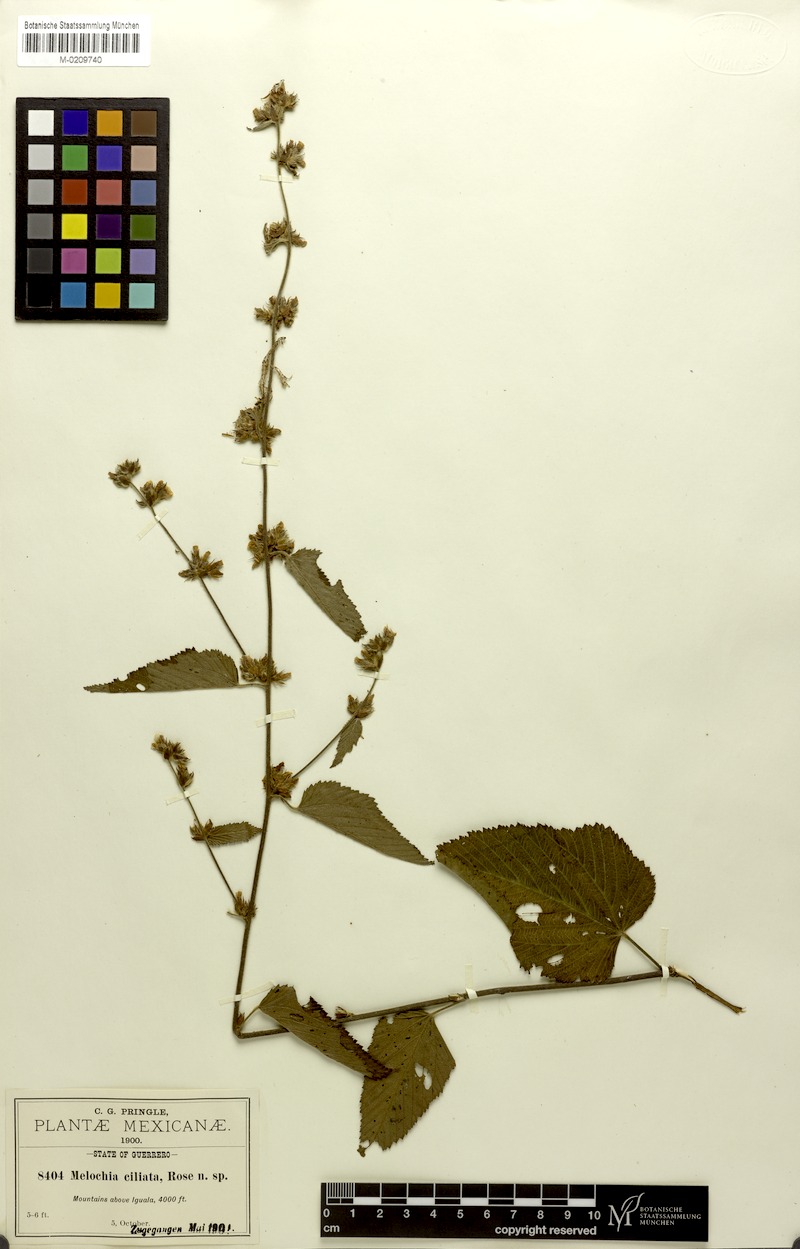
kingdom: Plantae
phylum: Tracheophyta
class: Magnoliopsida
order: Malvales
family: Malvaceae
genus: Melochia
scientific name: Melochia nudiflora
